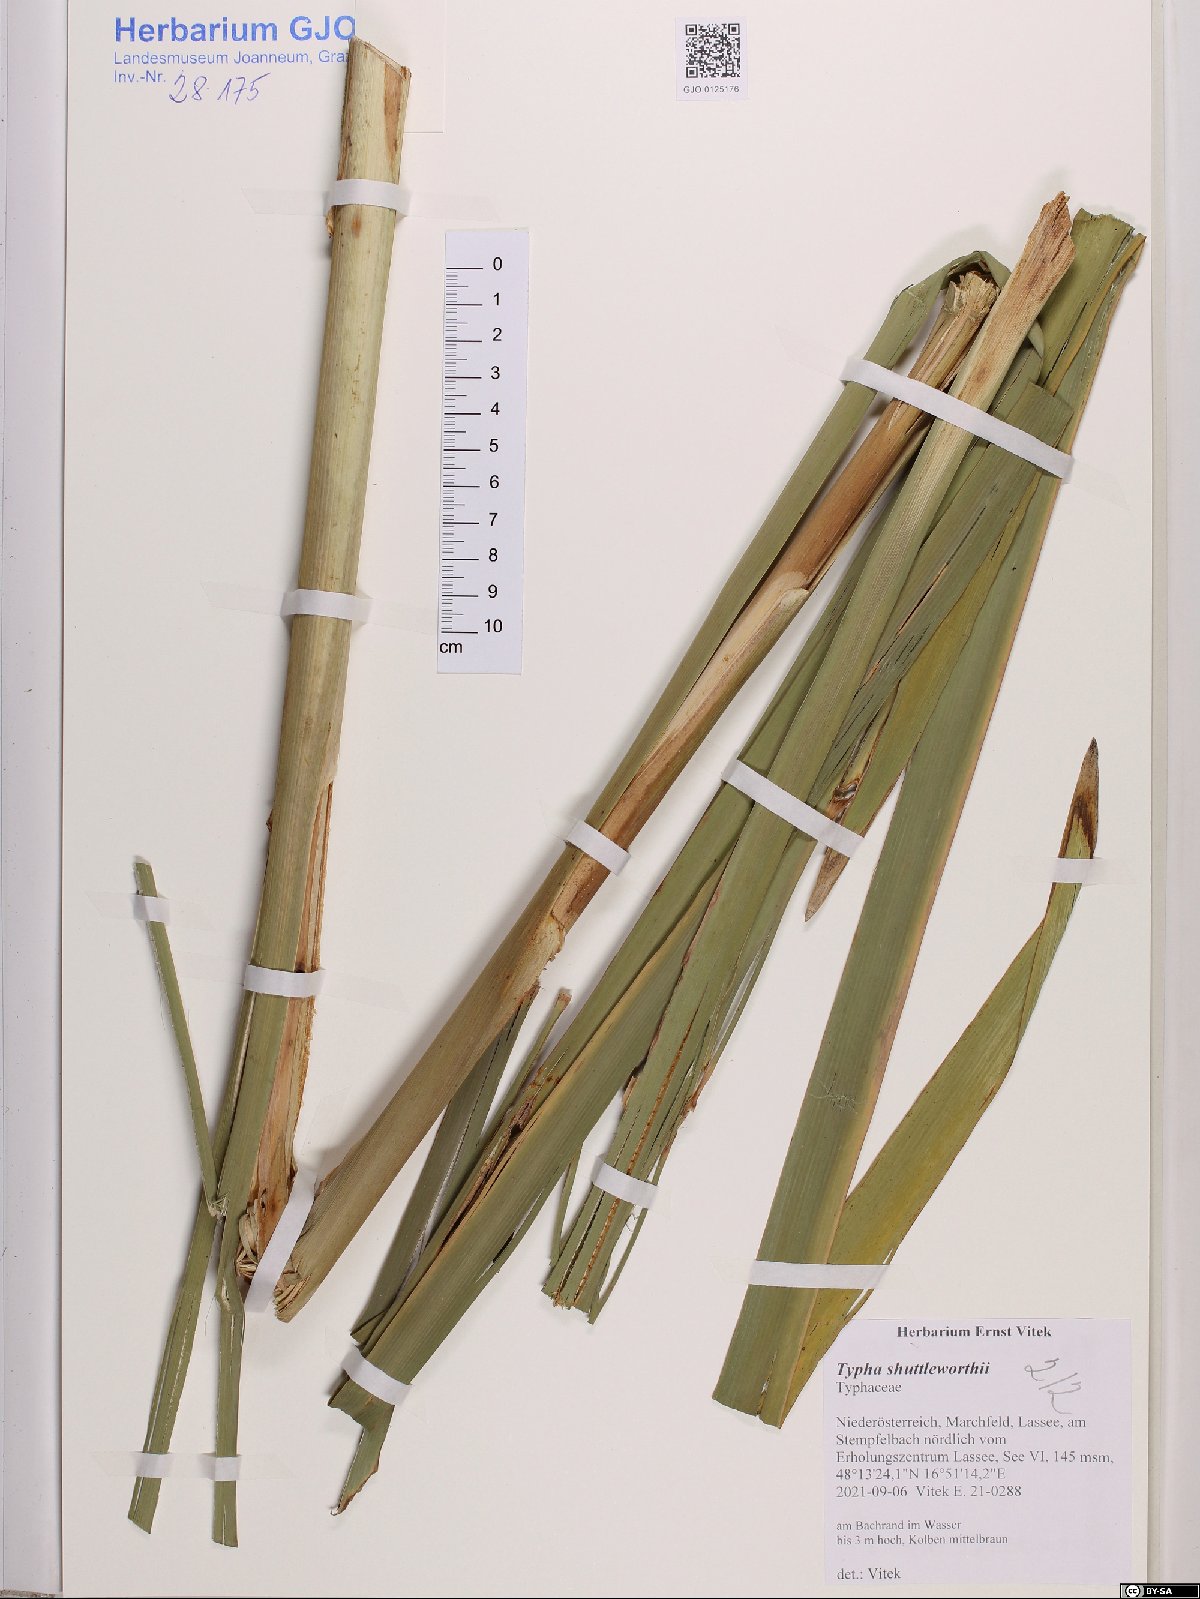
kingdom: Plantae
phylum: Tracheophyta
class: Liliopsida
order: Poales
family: Typhaceae
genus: Typha
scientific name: Typha shuttleworthii
